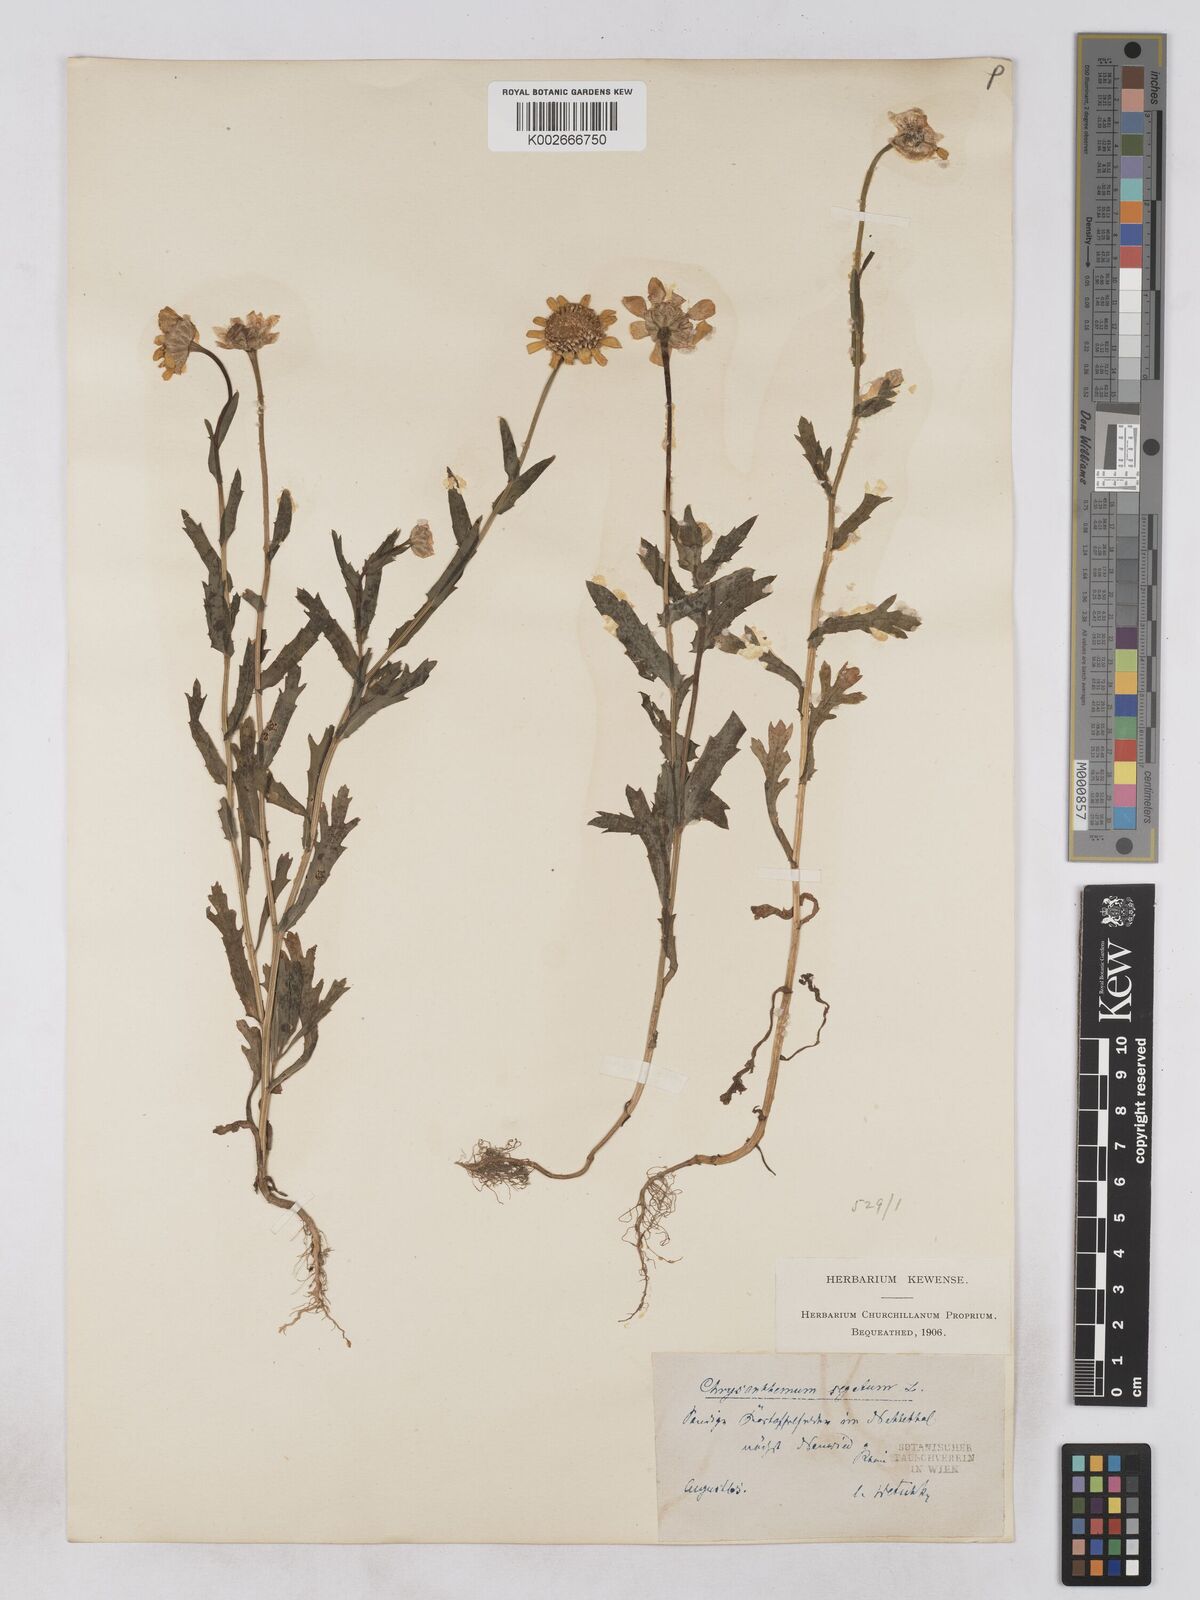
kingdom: Plantae
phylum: Tracheophyta
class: Magnoliopsida
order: Asterales
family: Asteraceae
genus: Glebionis
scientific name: Glebionis segetum
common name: Corndaisy
